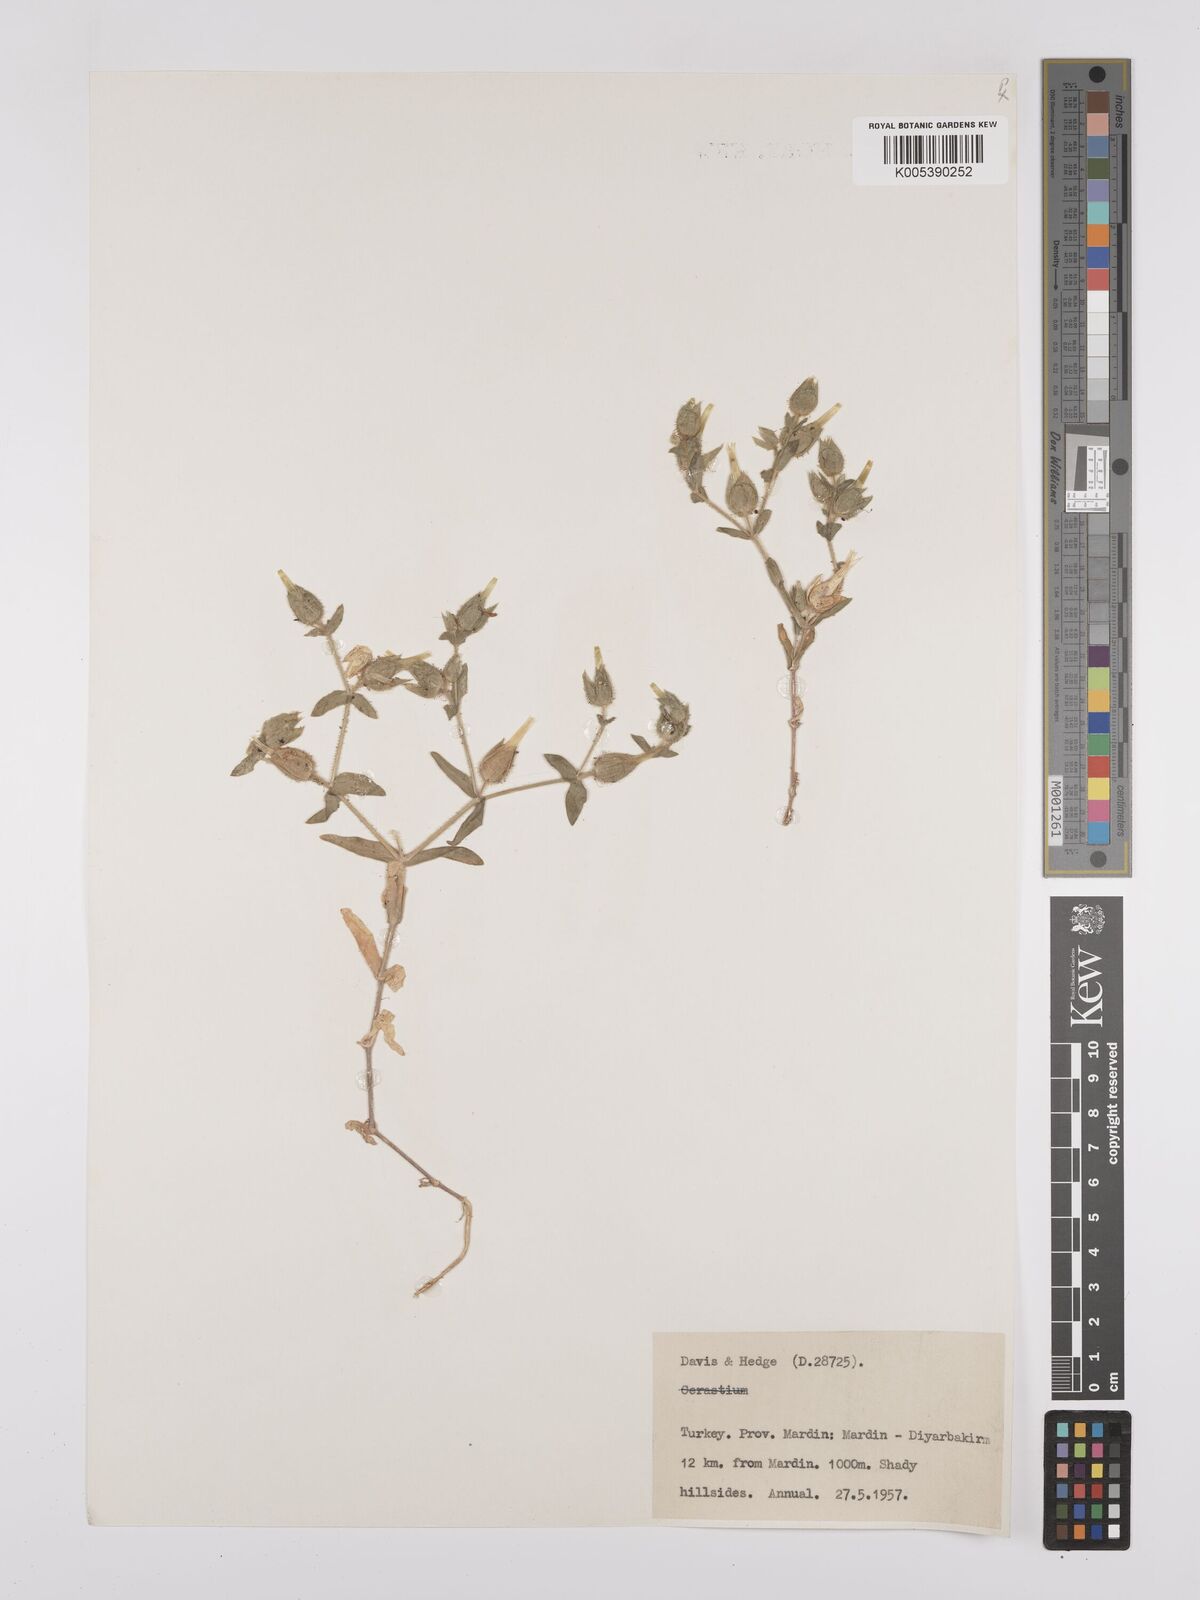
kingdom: Plantae
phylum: Tracheophyta
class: Magnoliopsida
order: Caryophyllales
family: Caryophyllaceae
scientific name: Caryophyllaceae
